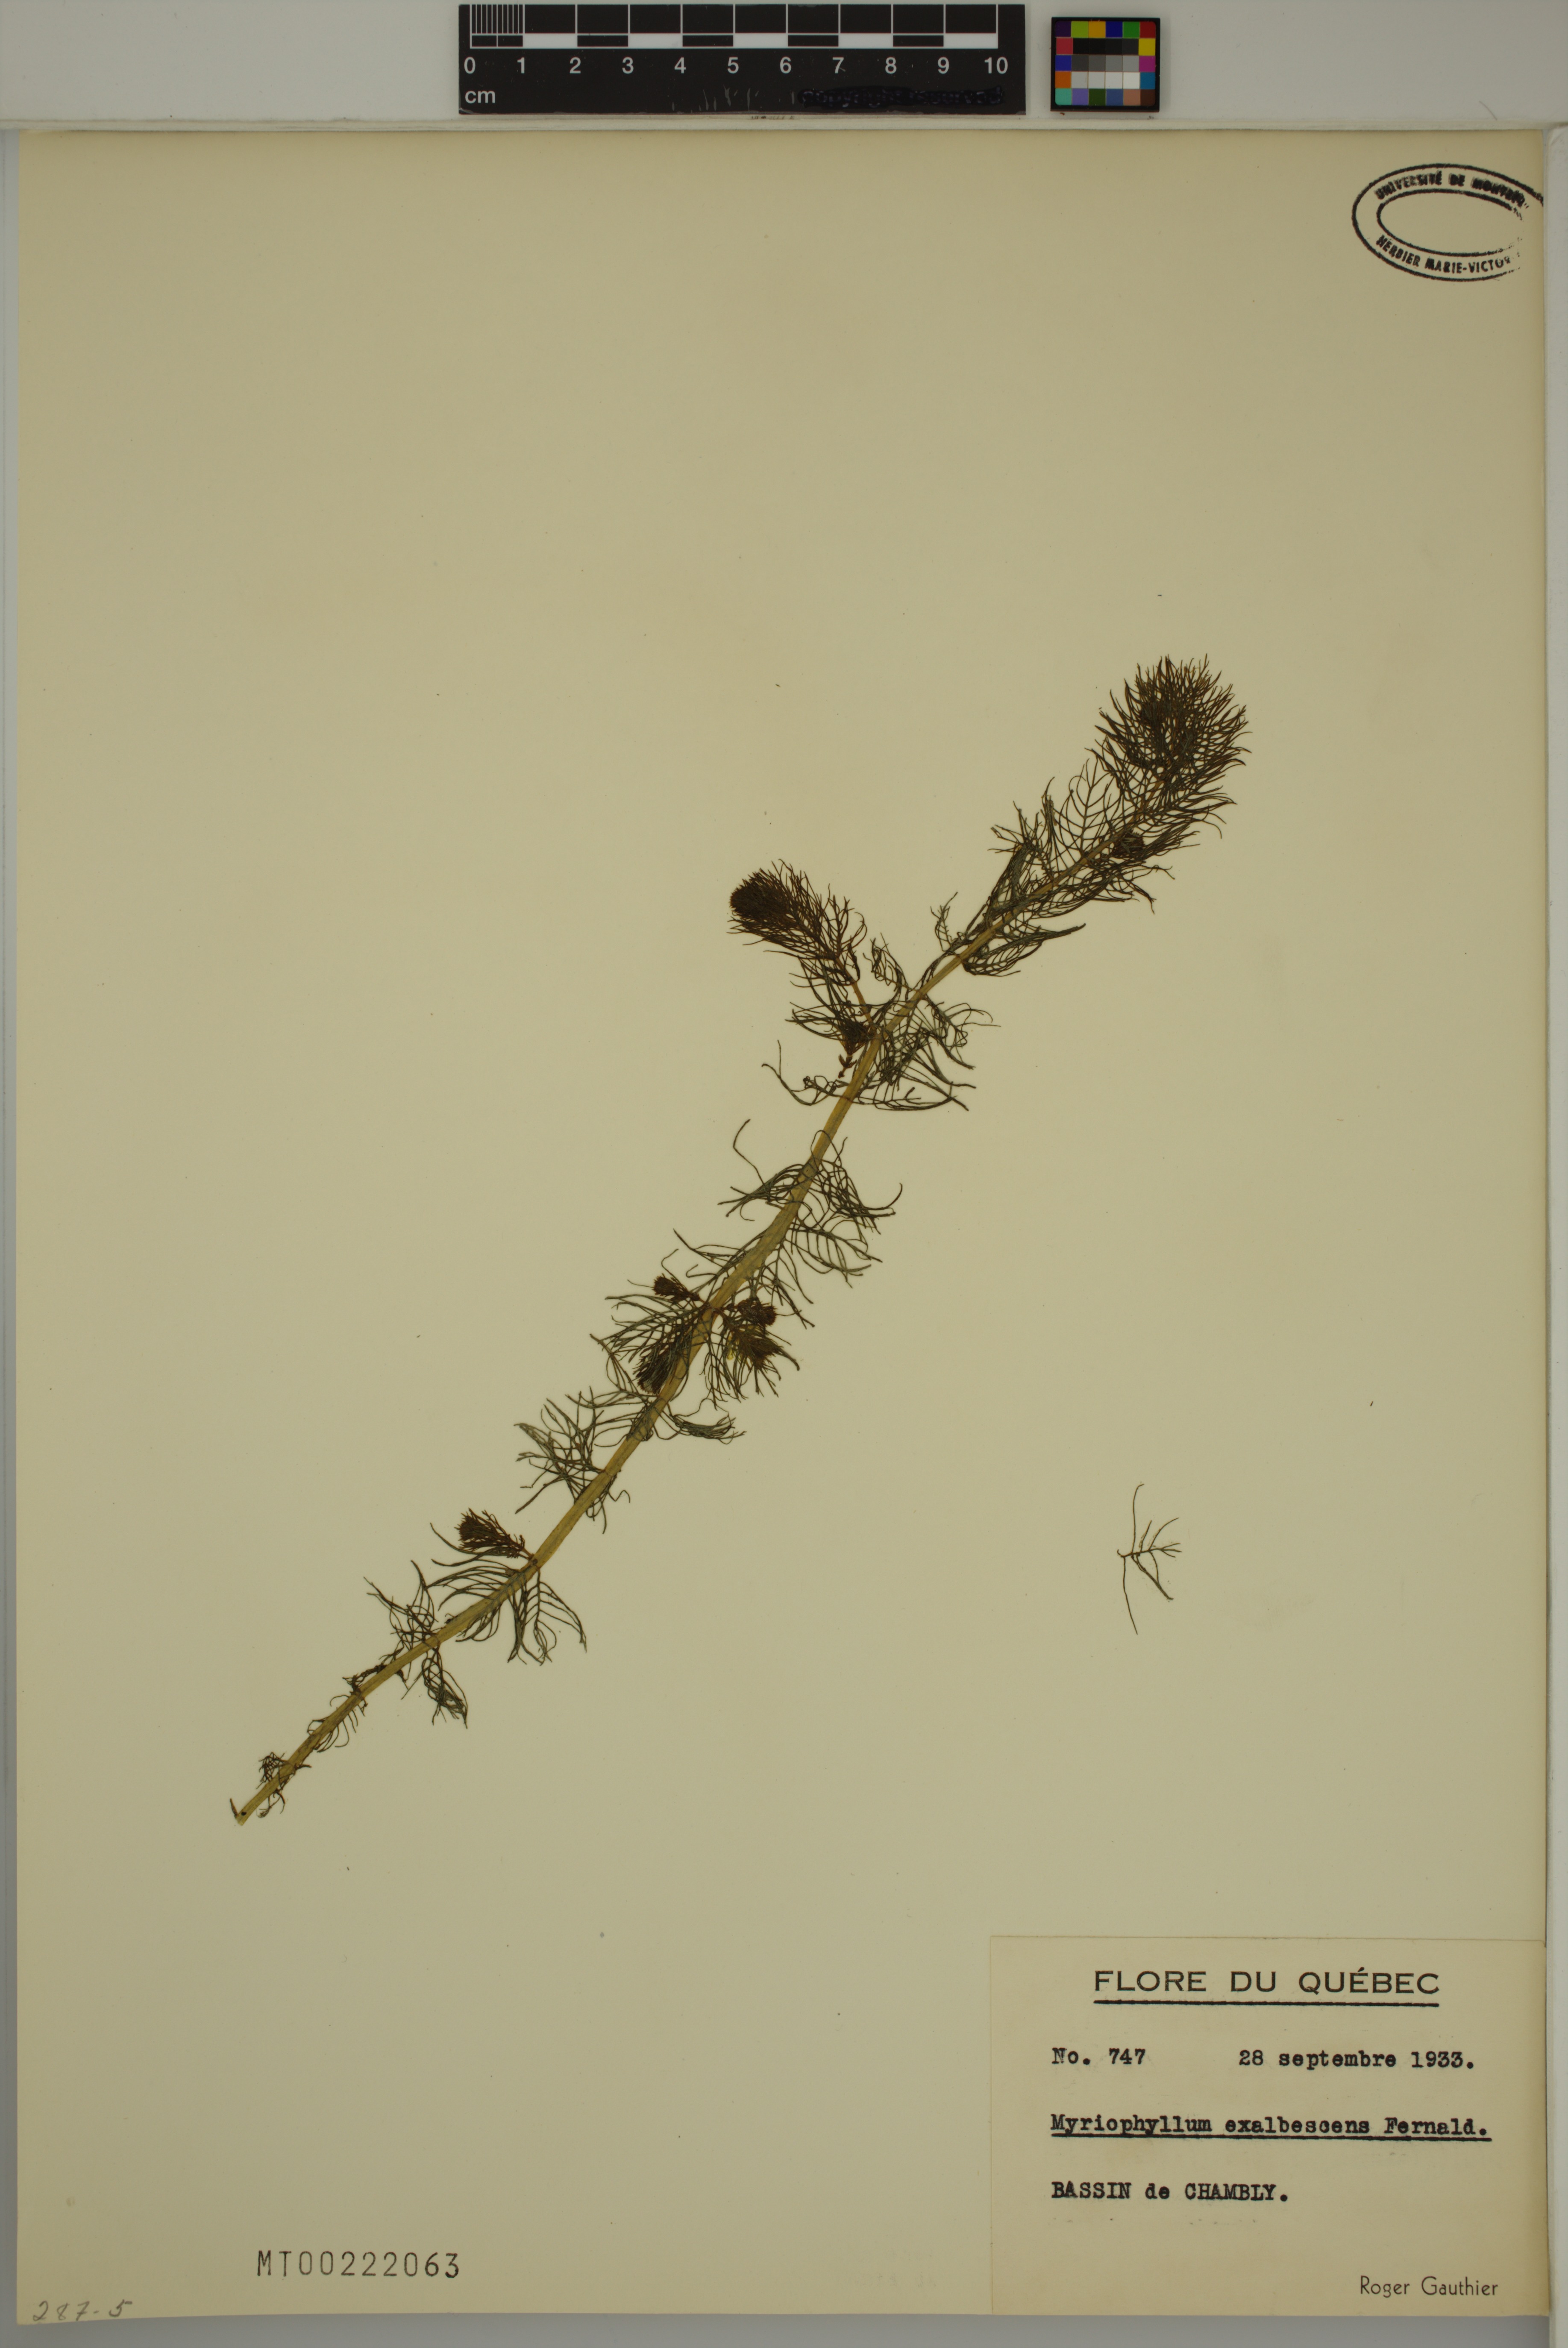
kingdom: Plantae
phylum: Tracheophyta
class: Magnoliopsida
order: Saxifragales
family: Haloragaceae
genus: Myriophyllum
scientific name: Myriophyllum sibiricum
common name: Siberian water-milfoil
